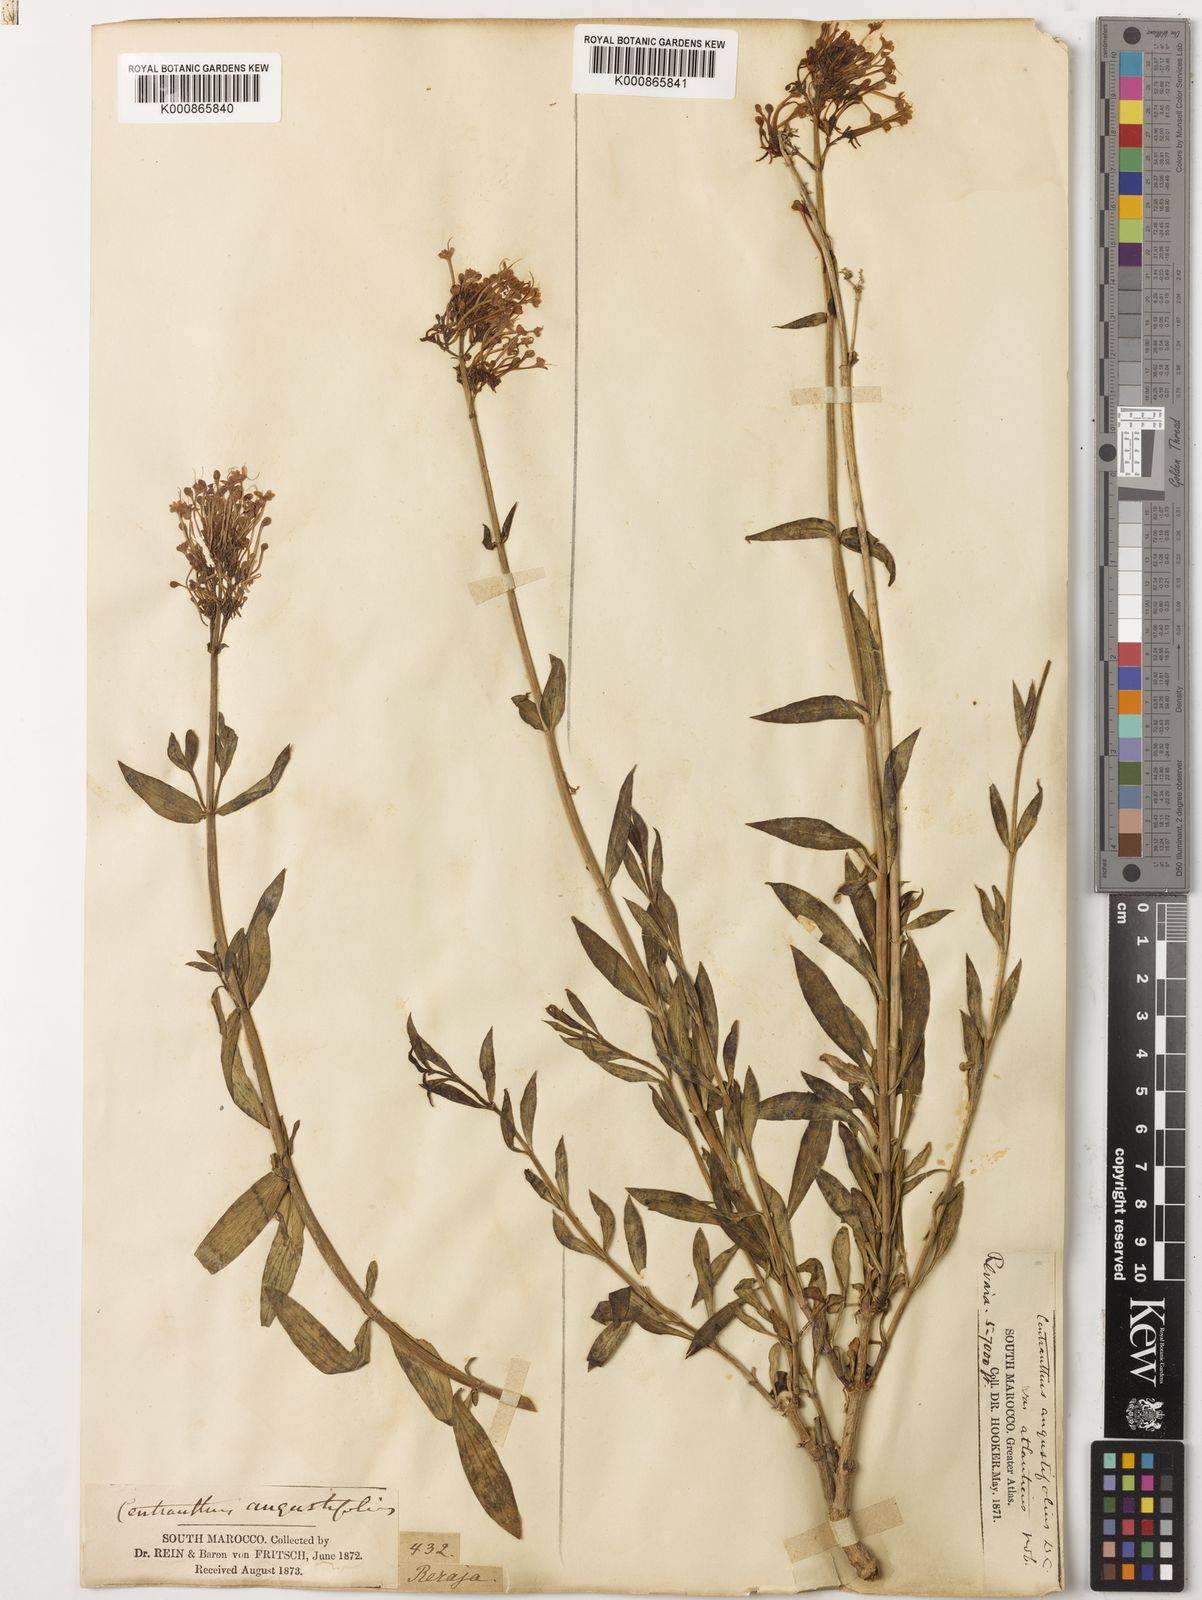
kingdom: Plantae
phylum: Tracheophyta
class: Magnoliopsida
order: Dipsacales
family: Caprifoliaceae
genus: Centranthus
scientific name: Centranthus angustifolius
